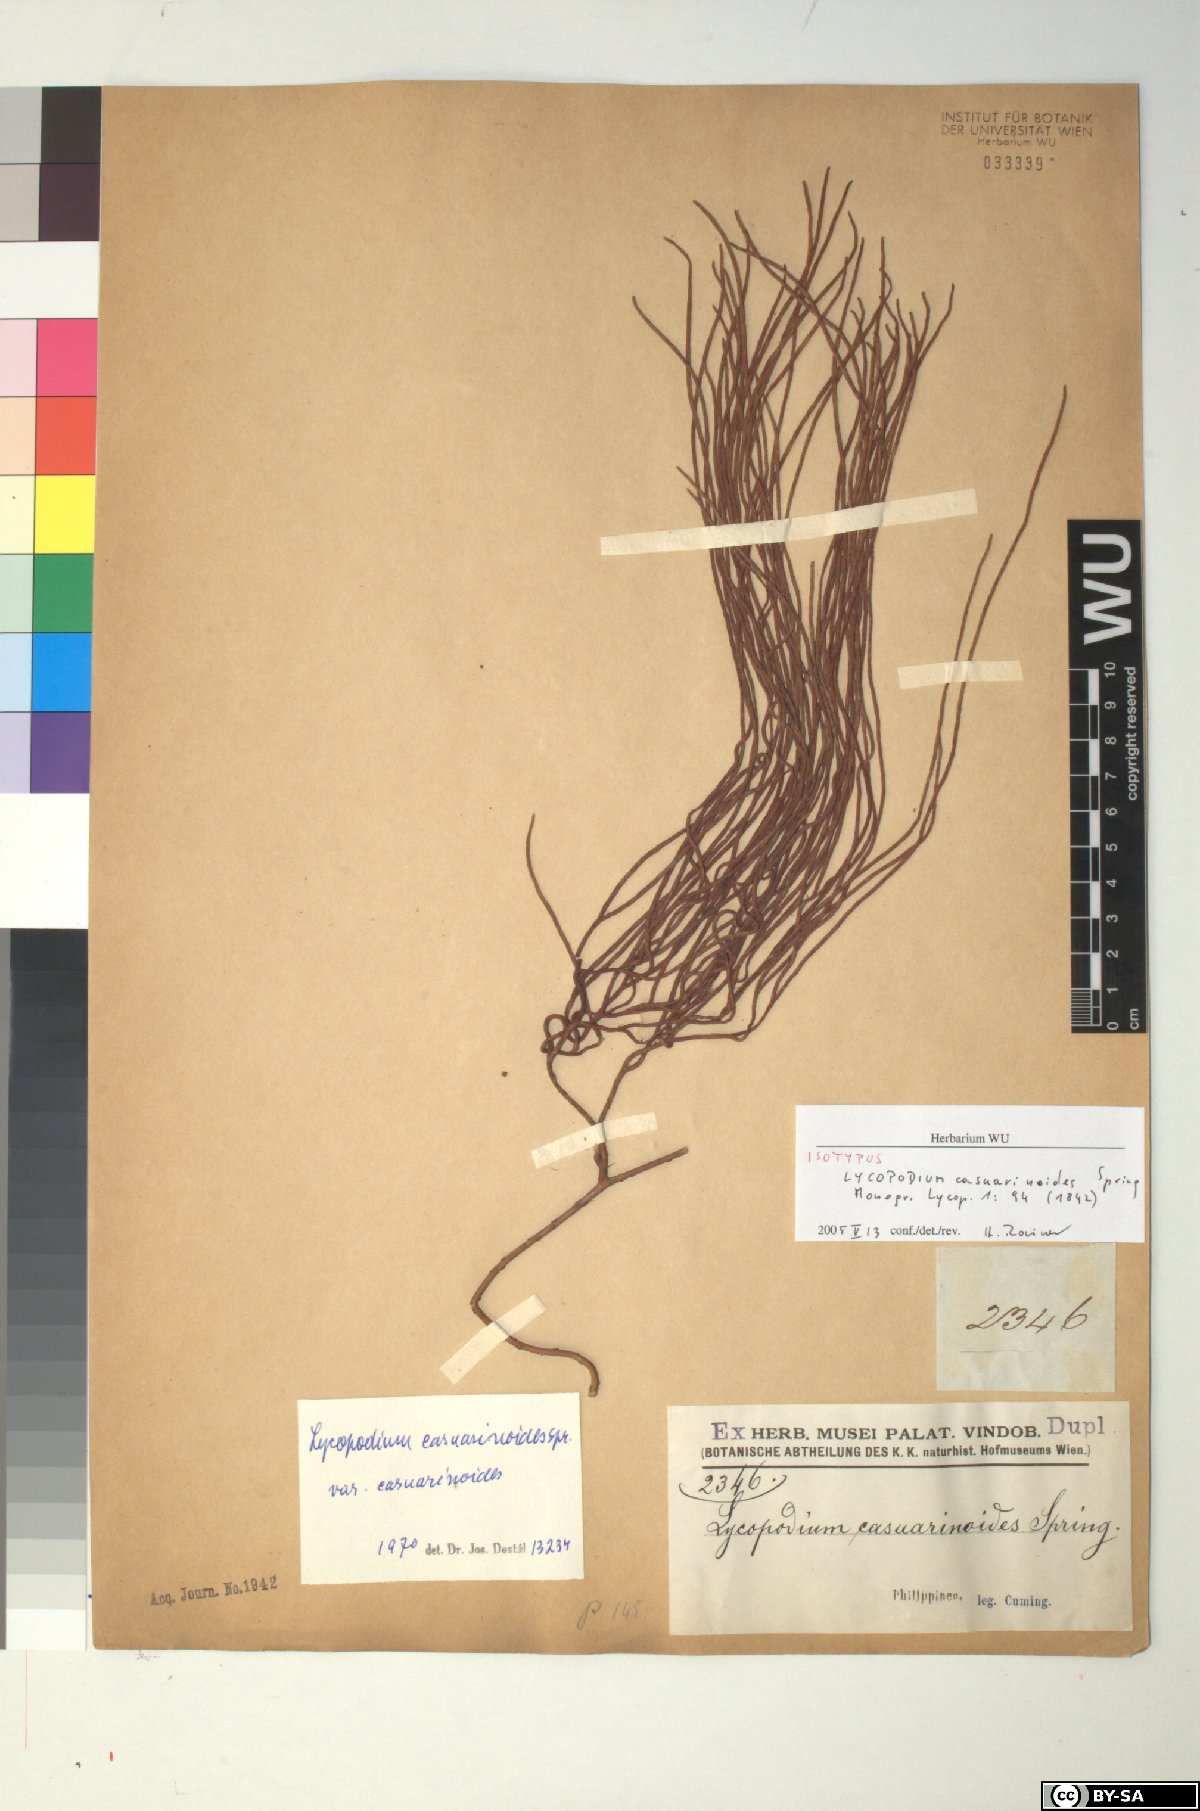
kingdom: Plantae
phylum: Tracheophyta
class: Lycopodiopsida
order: Lycopodiales
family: Lycopodiaceae
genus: Lycopodiastrum
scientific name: Lycopodiastrum casuarinoides
